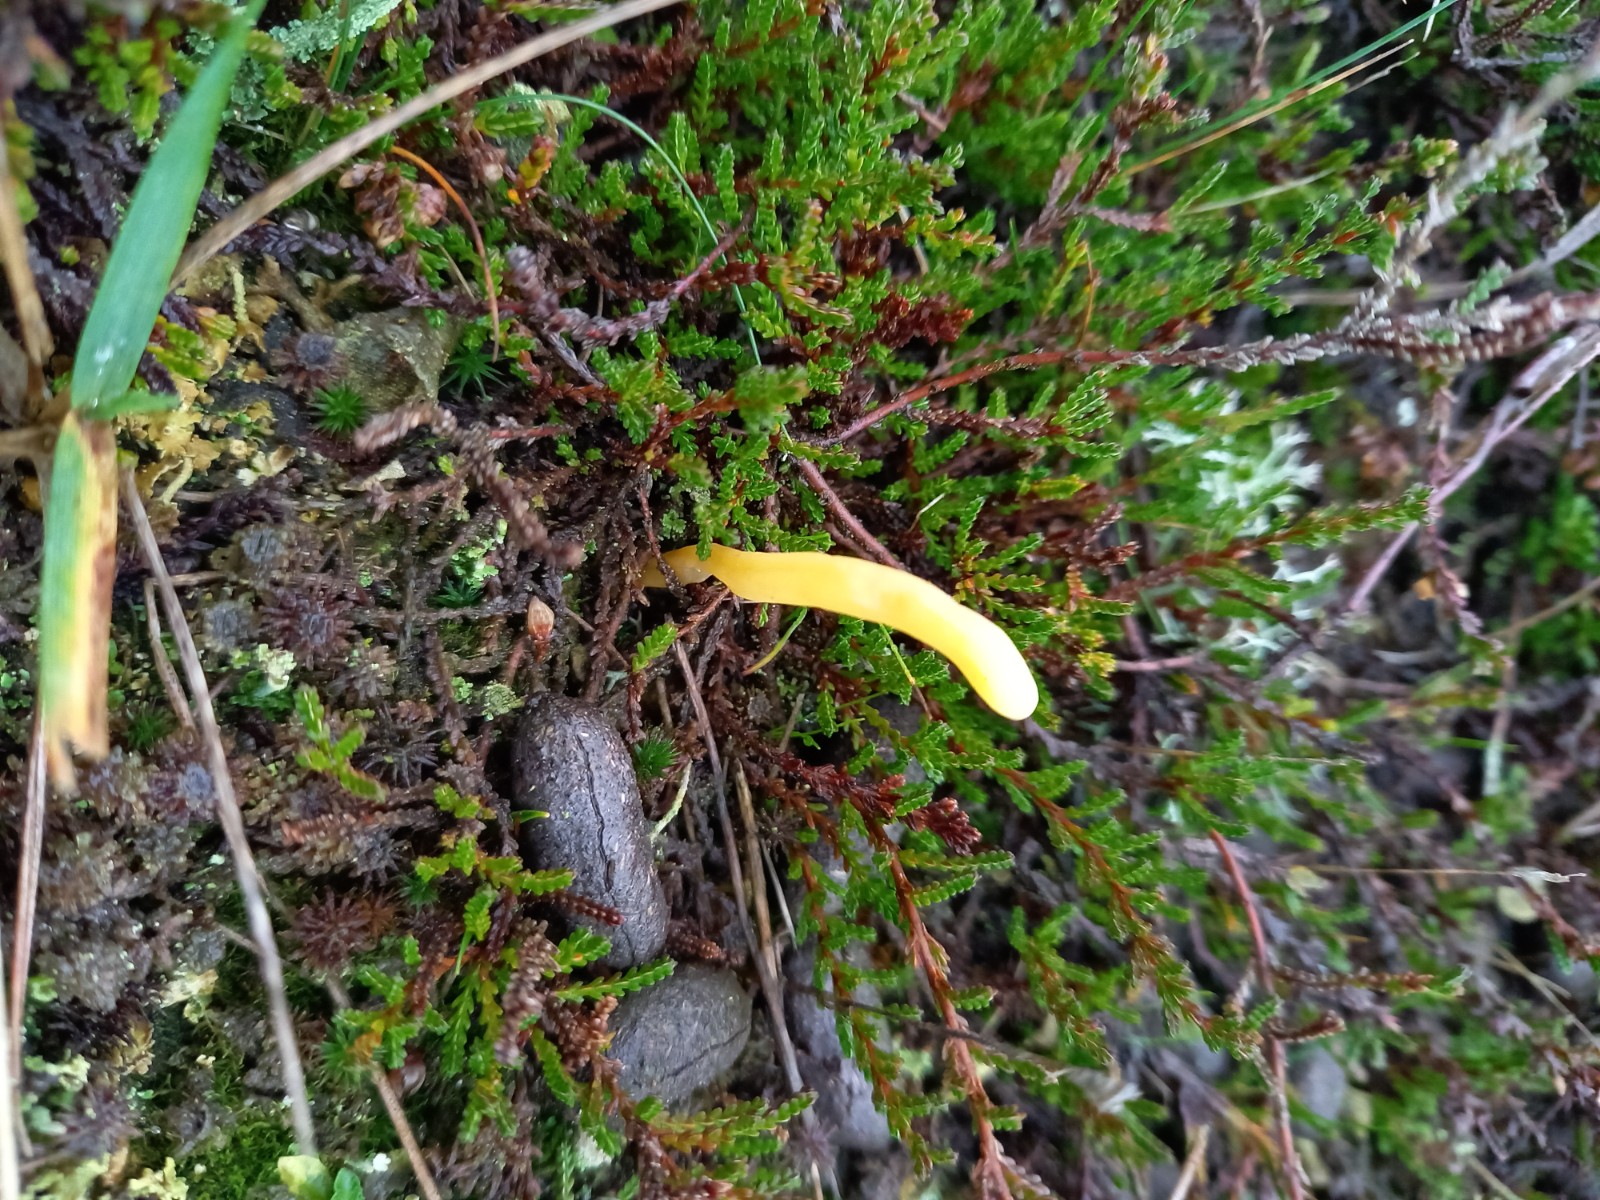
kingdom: Fungi
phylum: Basidiomycota
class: Agaricomycetes
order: Agaricales
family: Clavariaceae
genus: Clavaria
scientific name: Clavaria argillacea
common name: lerfarvet køllesvamp
